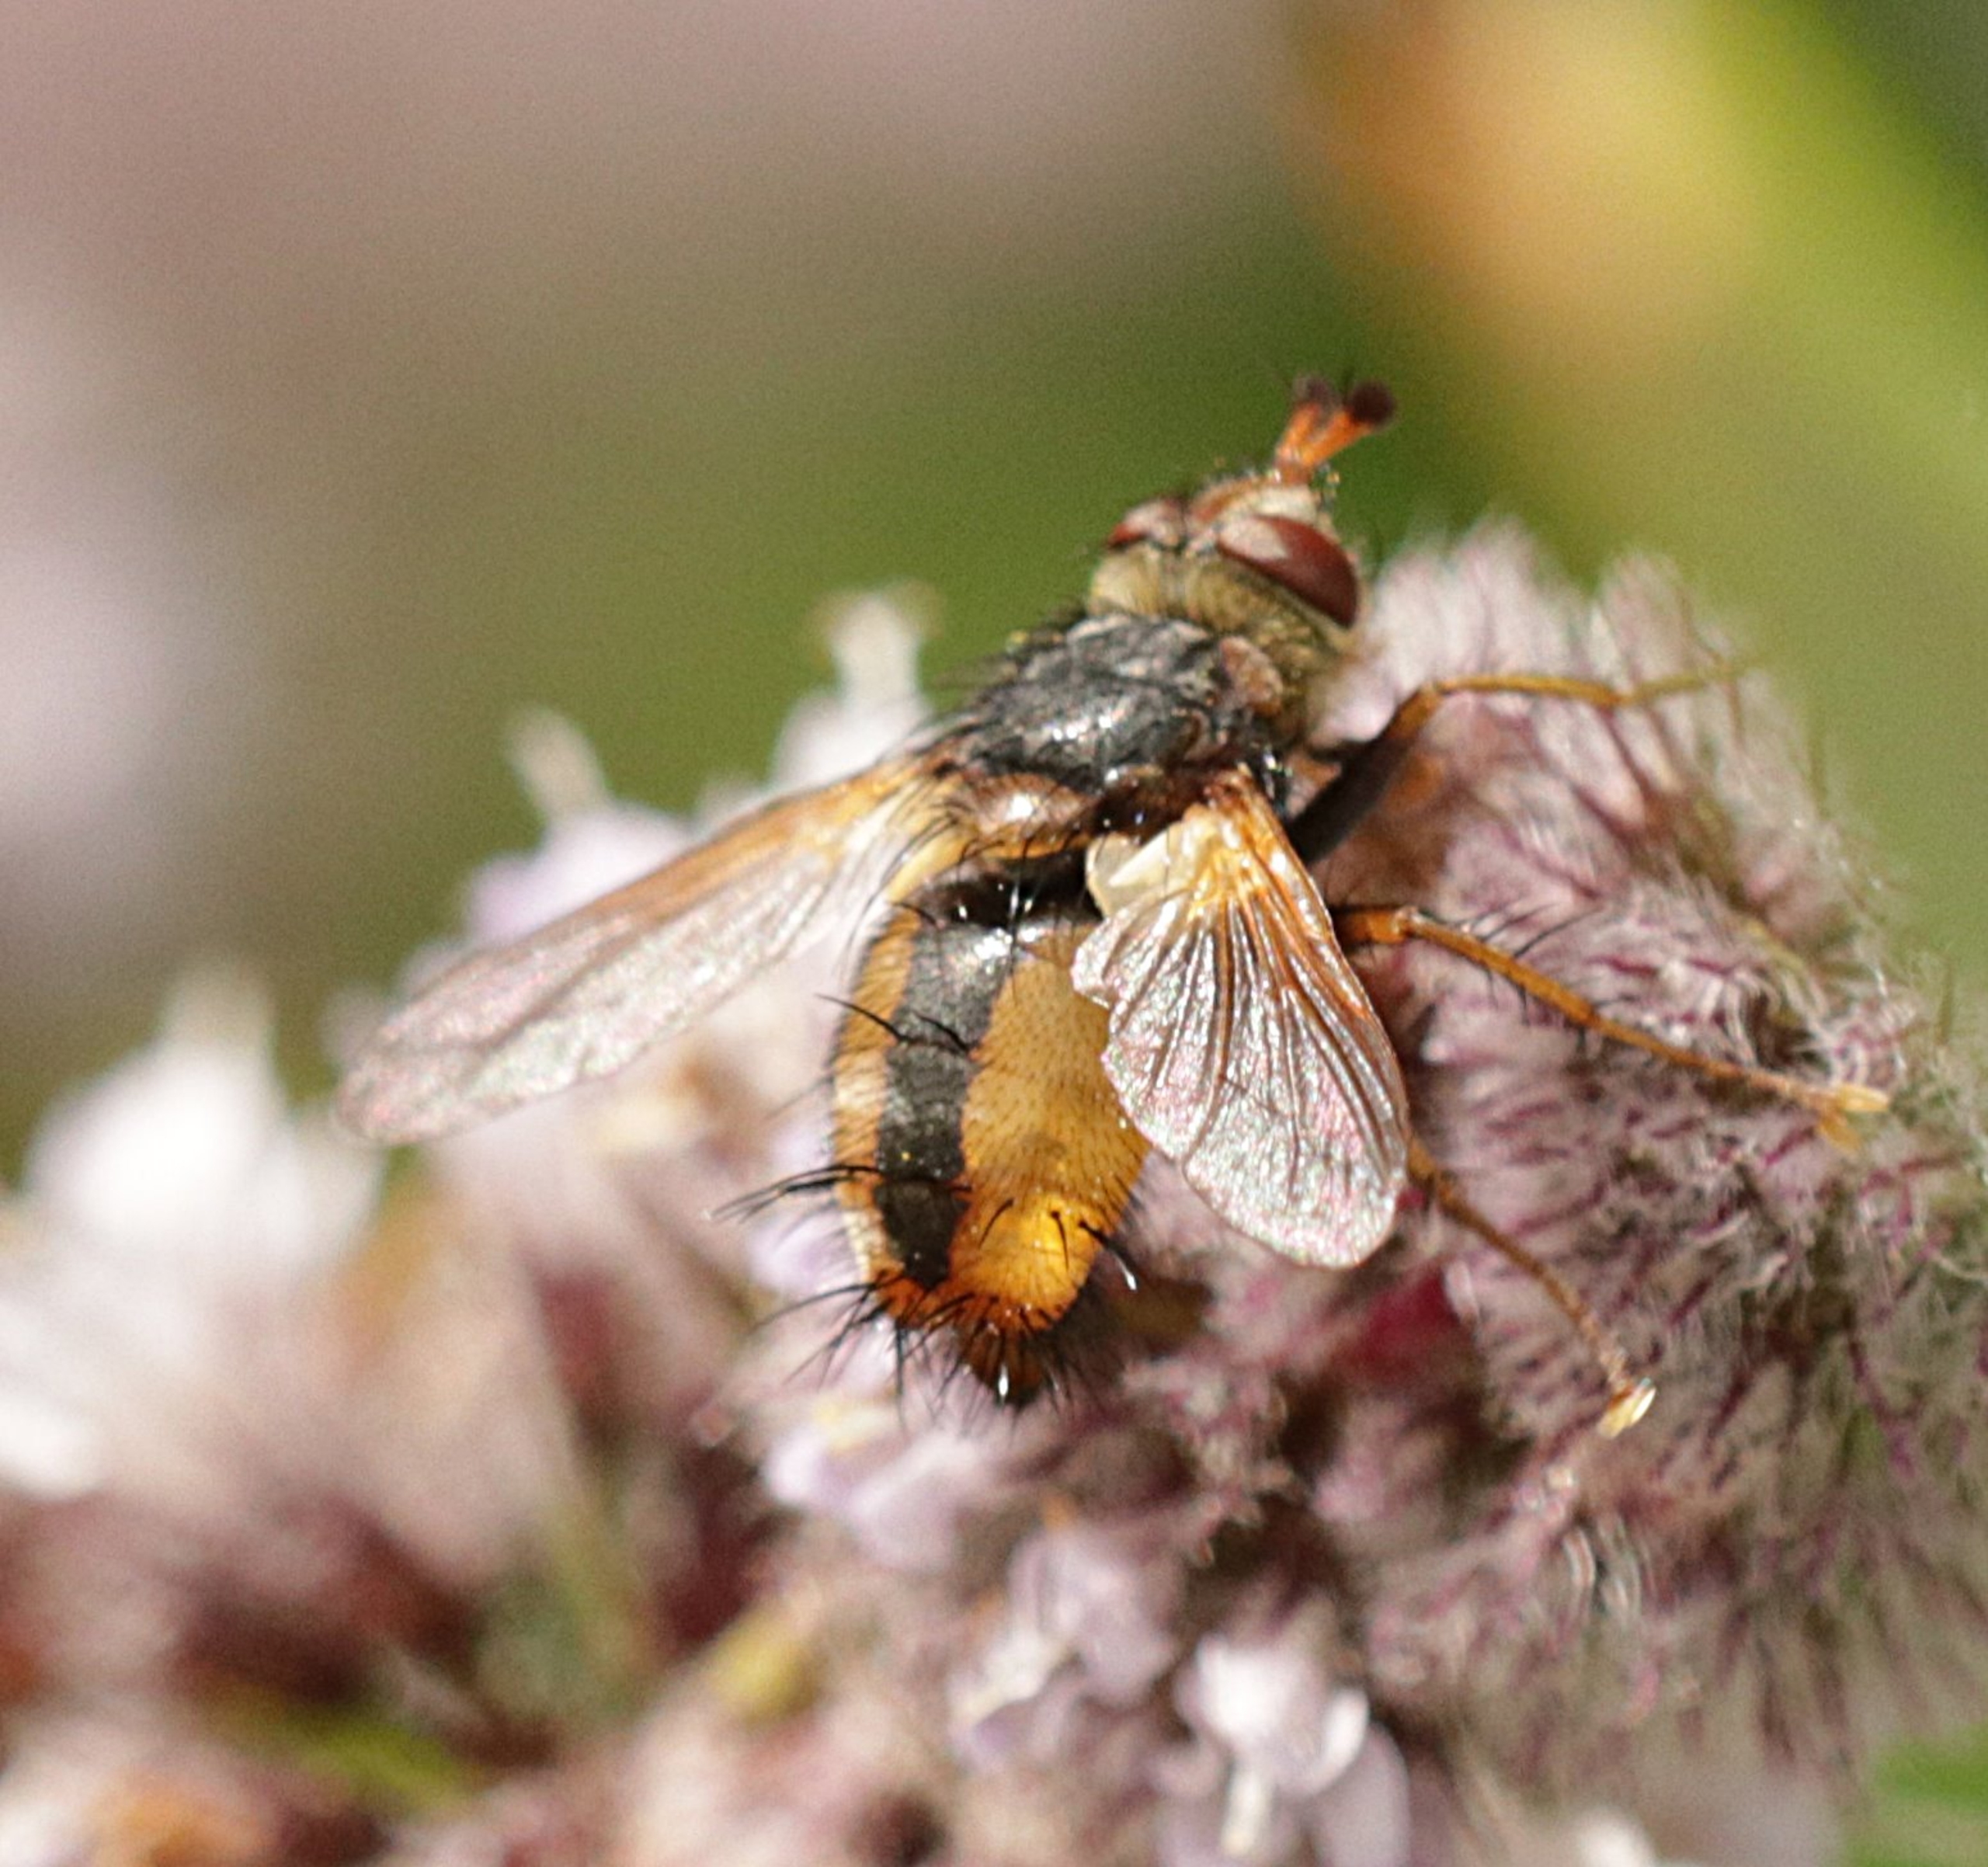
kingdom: Animalia
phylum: Arthropoda
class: Insecta
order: Diptera
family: Tachinidae
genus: Tachina
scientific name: Tachina fera
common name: Mellemfluen oskar
